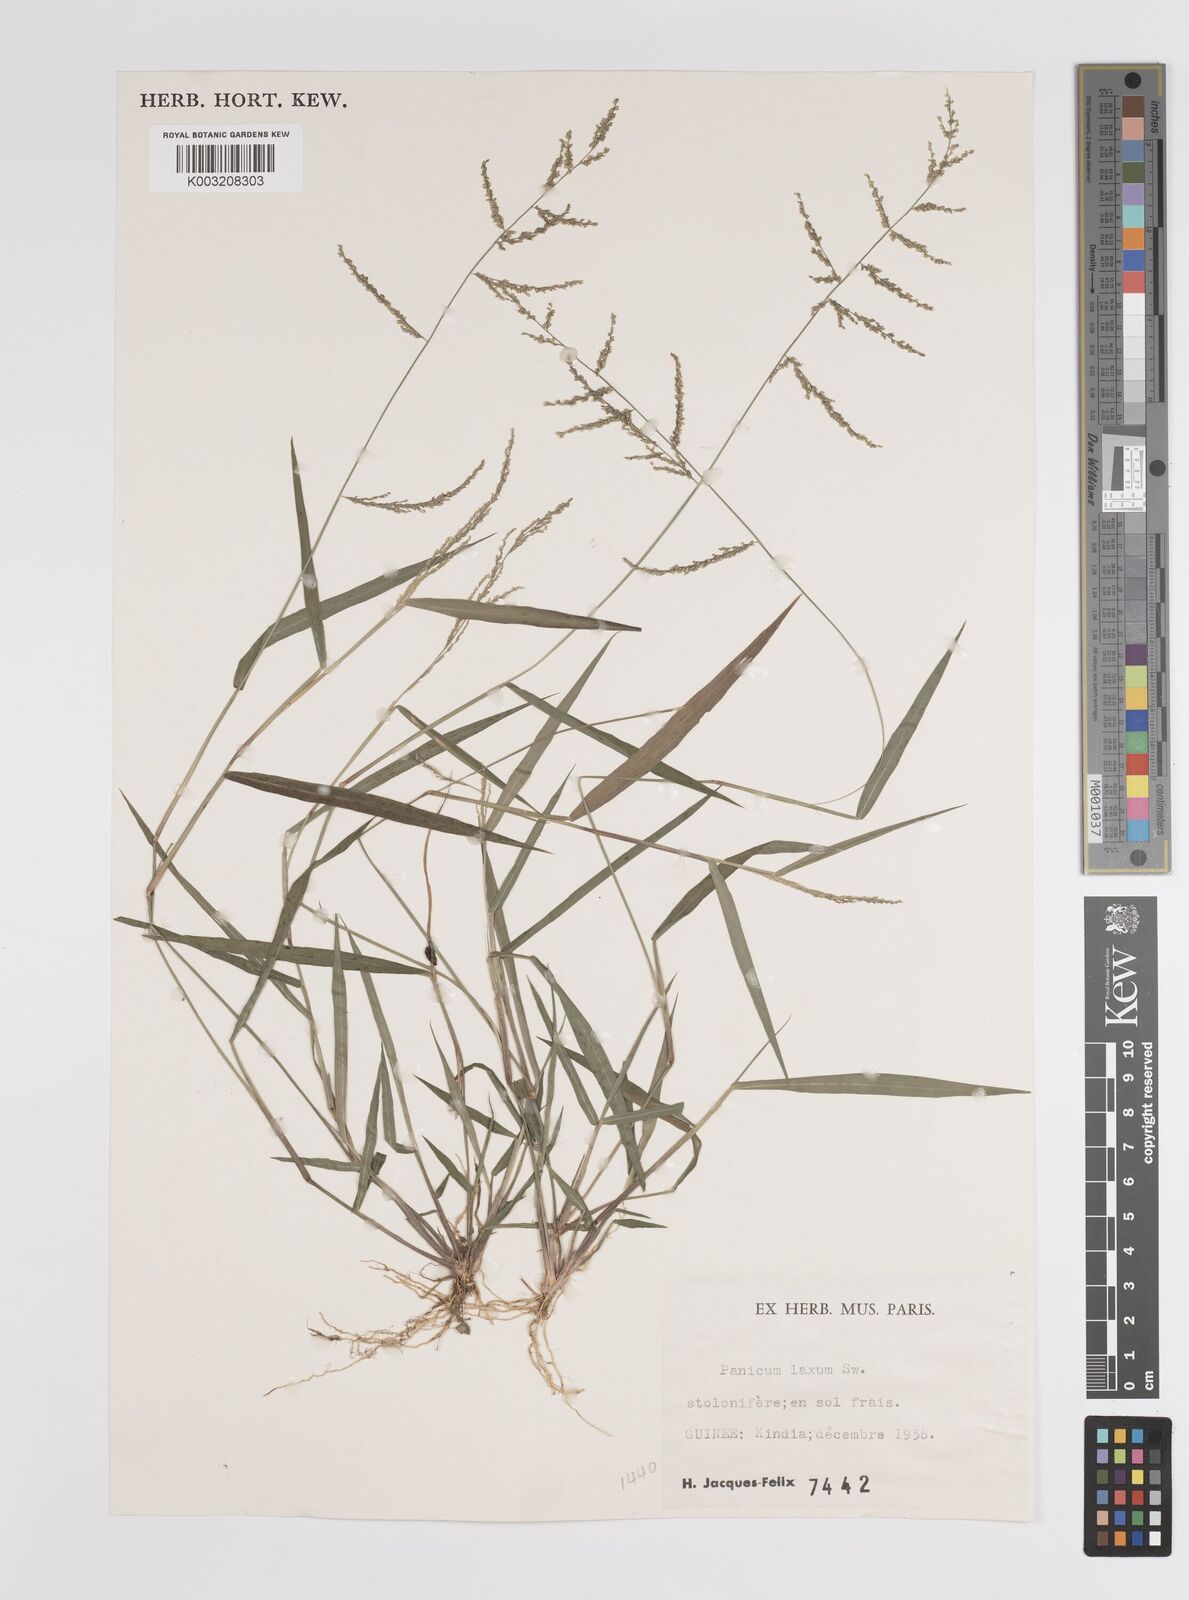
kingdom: Plantae
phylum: Tracheophyta
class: Liliopsida
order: Poales
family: Poaceae
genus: Steinchisma
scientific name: Steinchisma laxum
